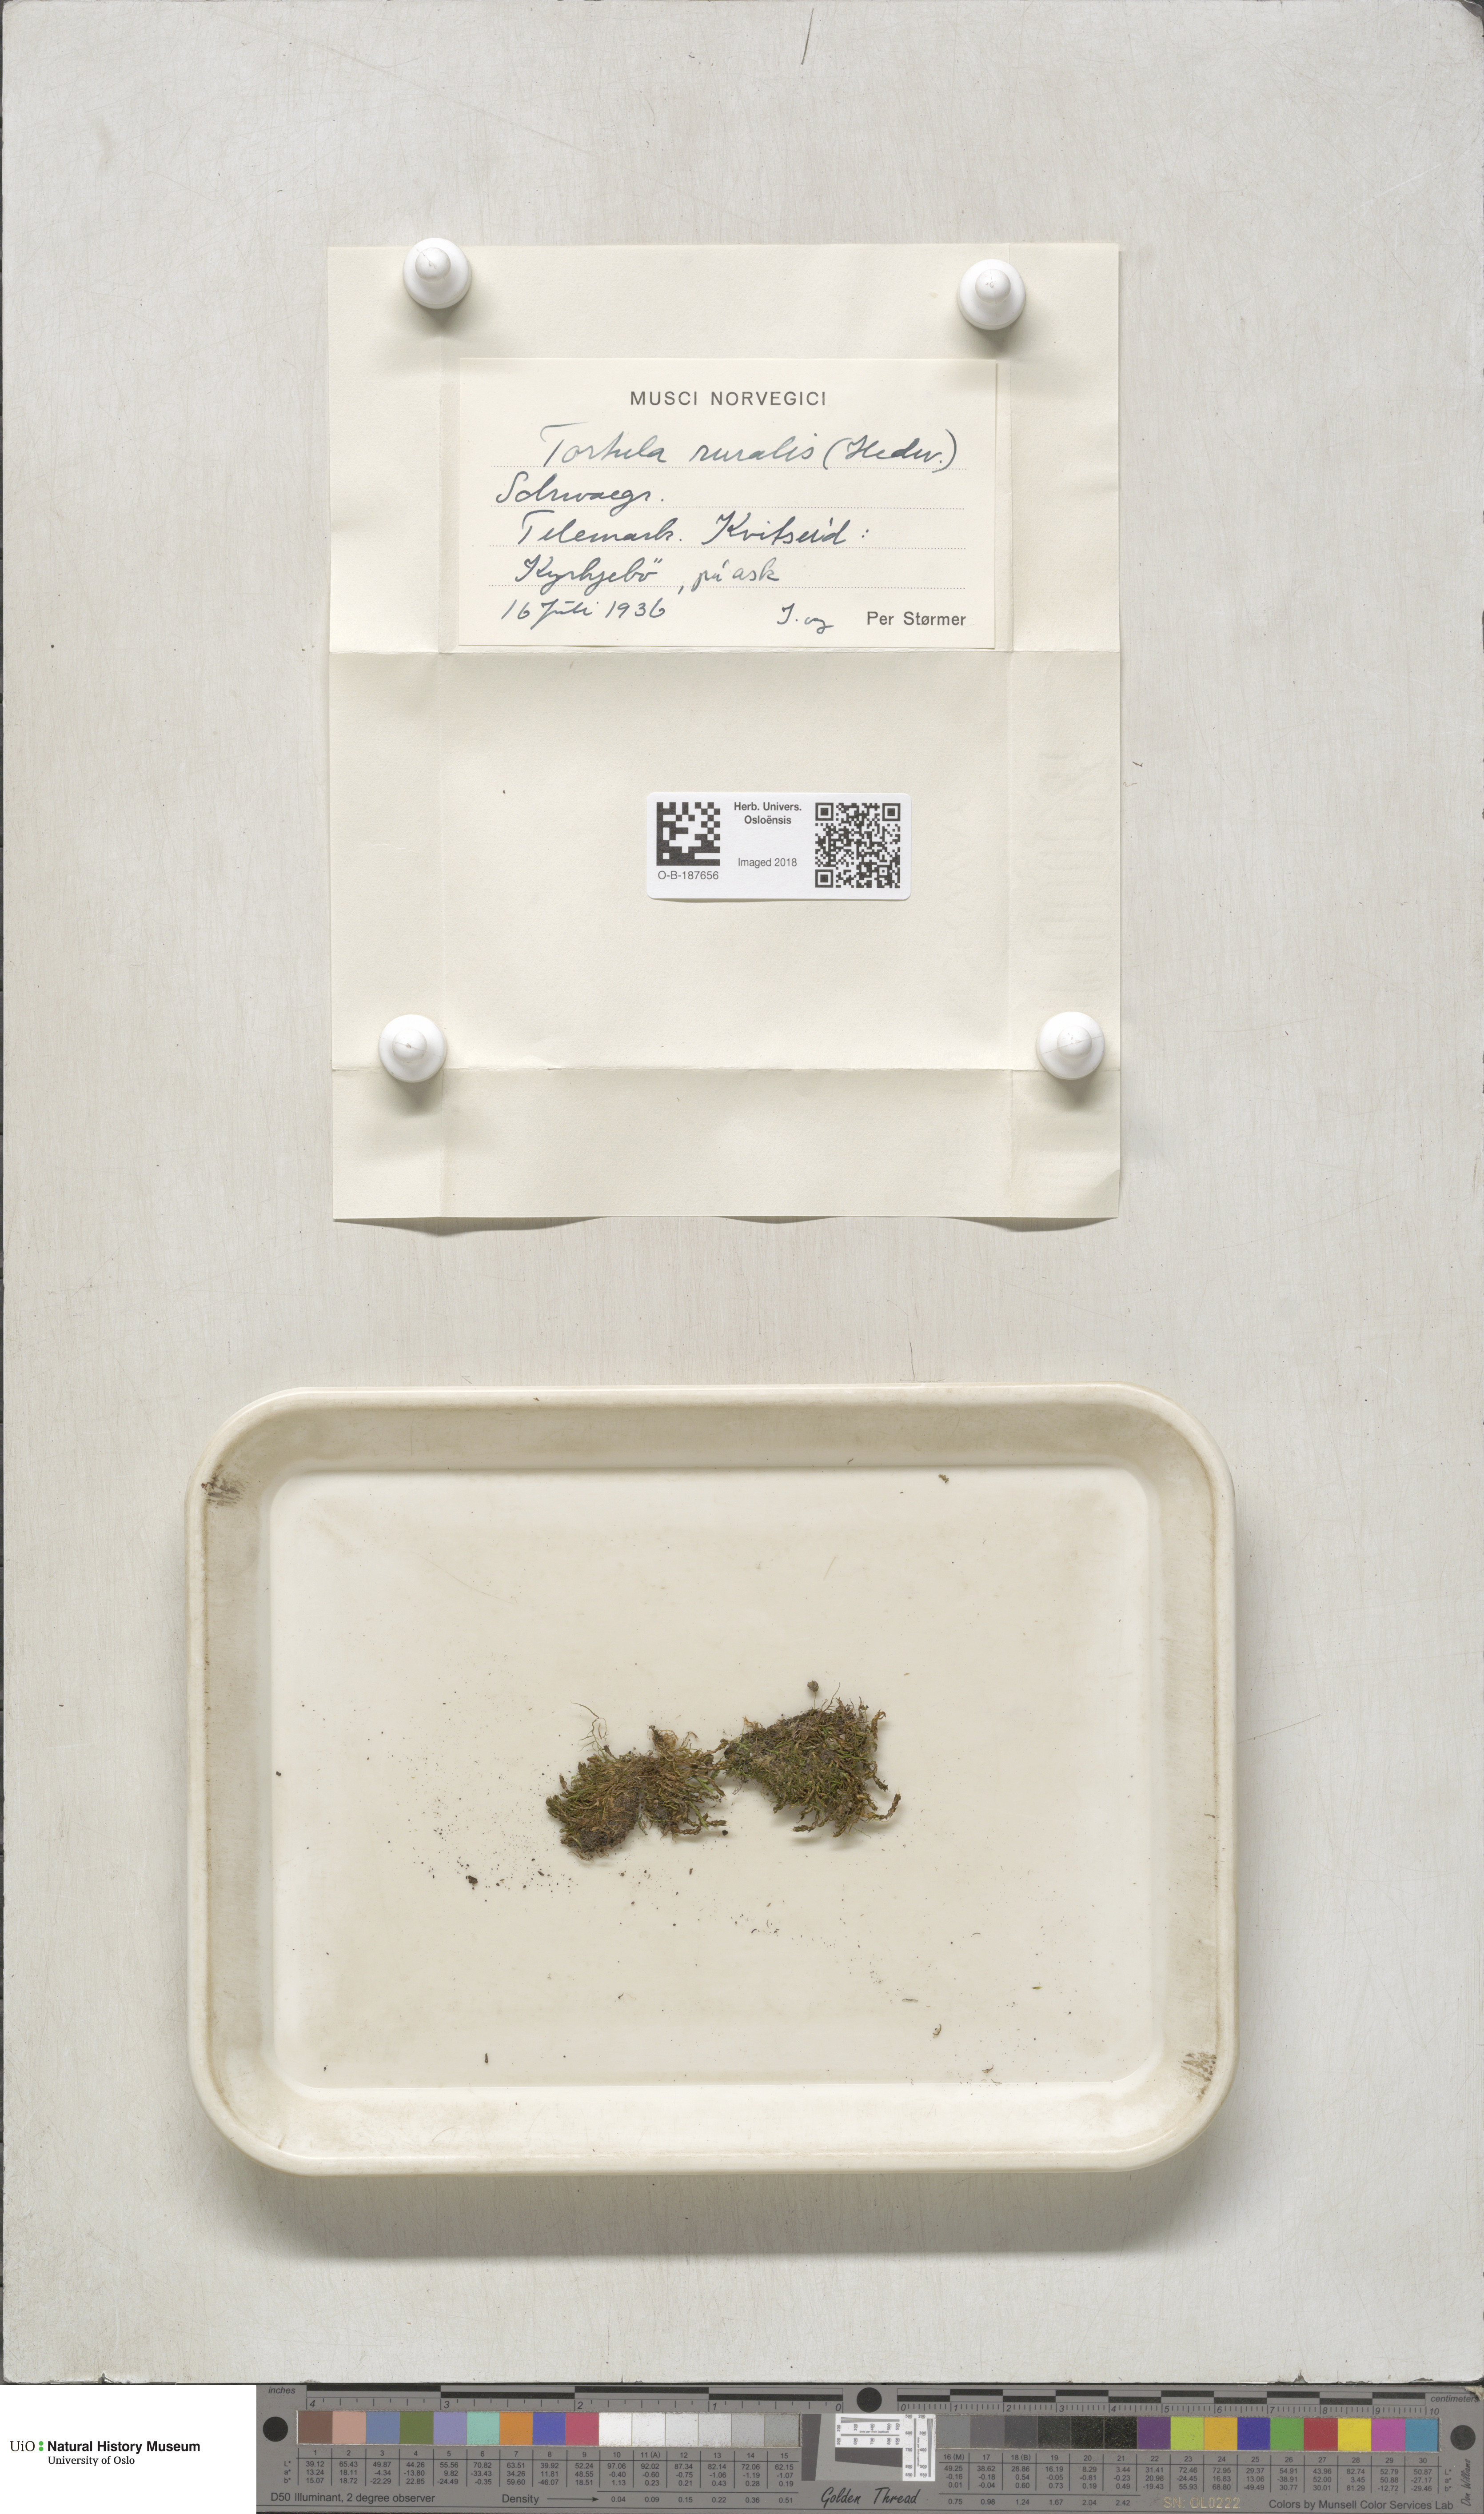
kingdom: Plantae
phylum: Bryophyta
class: Bryopsida
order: Pottiales
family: Pottiaceae
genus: Syntrichia
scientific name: Syntrichia ruralis
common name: Sidewalk screw moss
